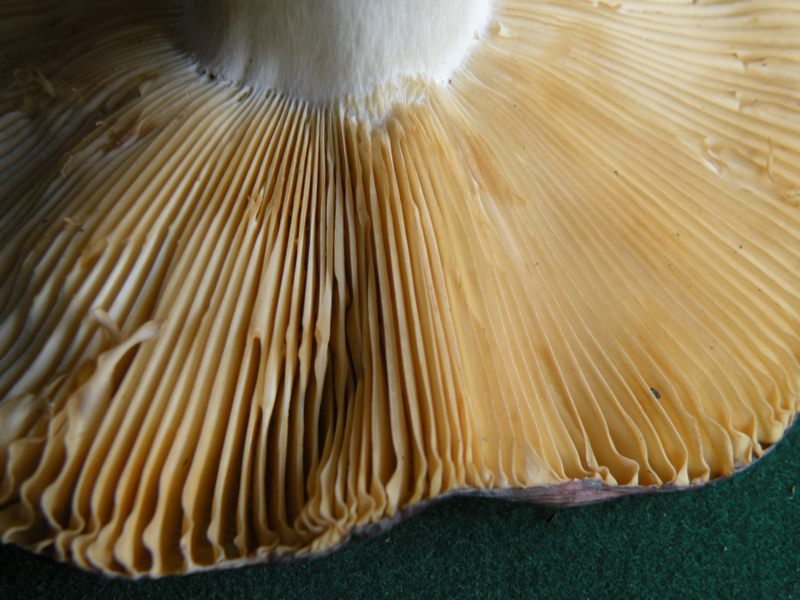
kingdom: Fungi
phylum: Basidiomycota
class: Agaricomycetes
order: Russulales
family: Russulaceae
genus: Russula
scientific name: Russula romellii
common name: romells skørhat
